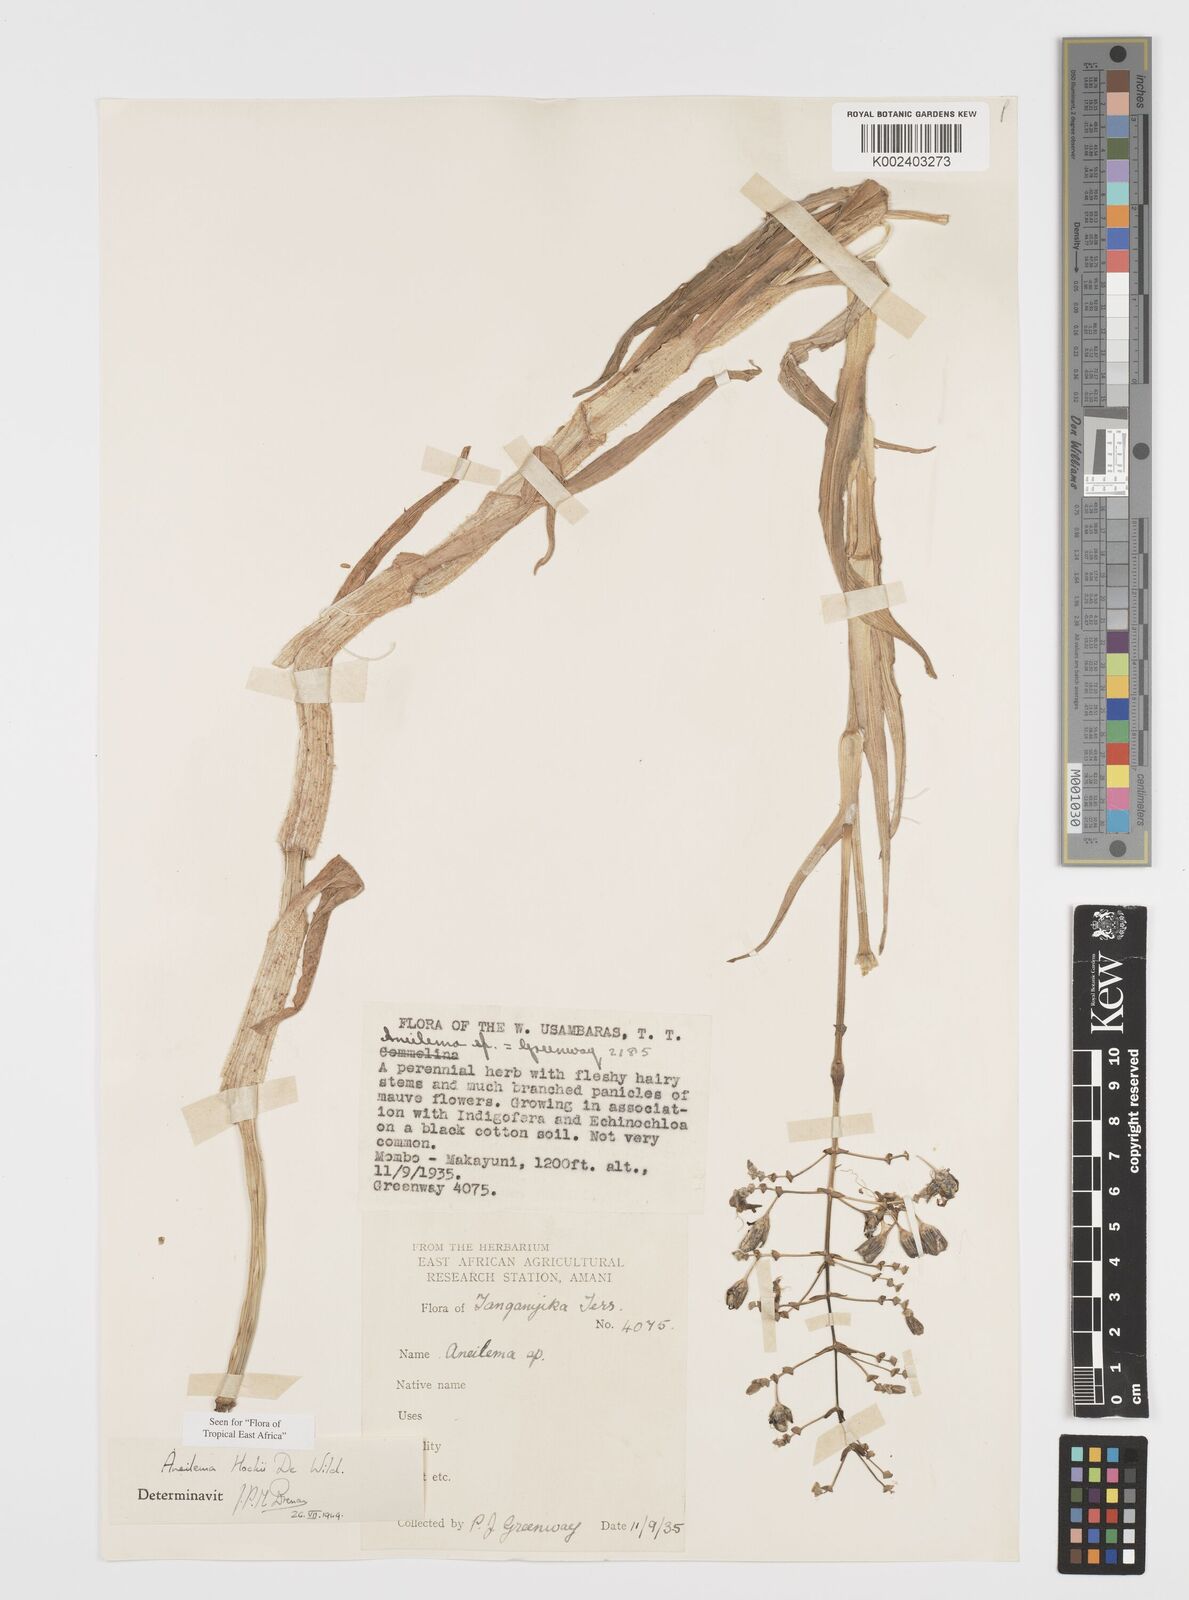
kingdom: Plantae
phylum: Tracheophyta
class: Liliopsida
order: Commelinales
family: Commelinaceae
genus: Aneilema
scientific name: Aneilema hockii
